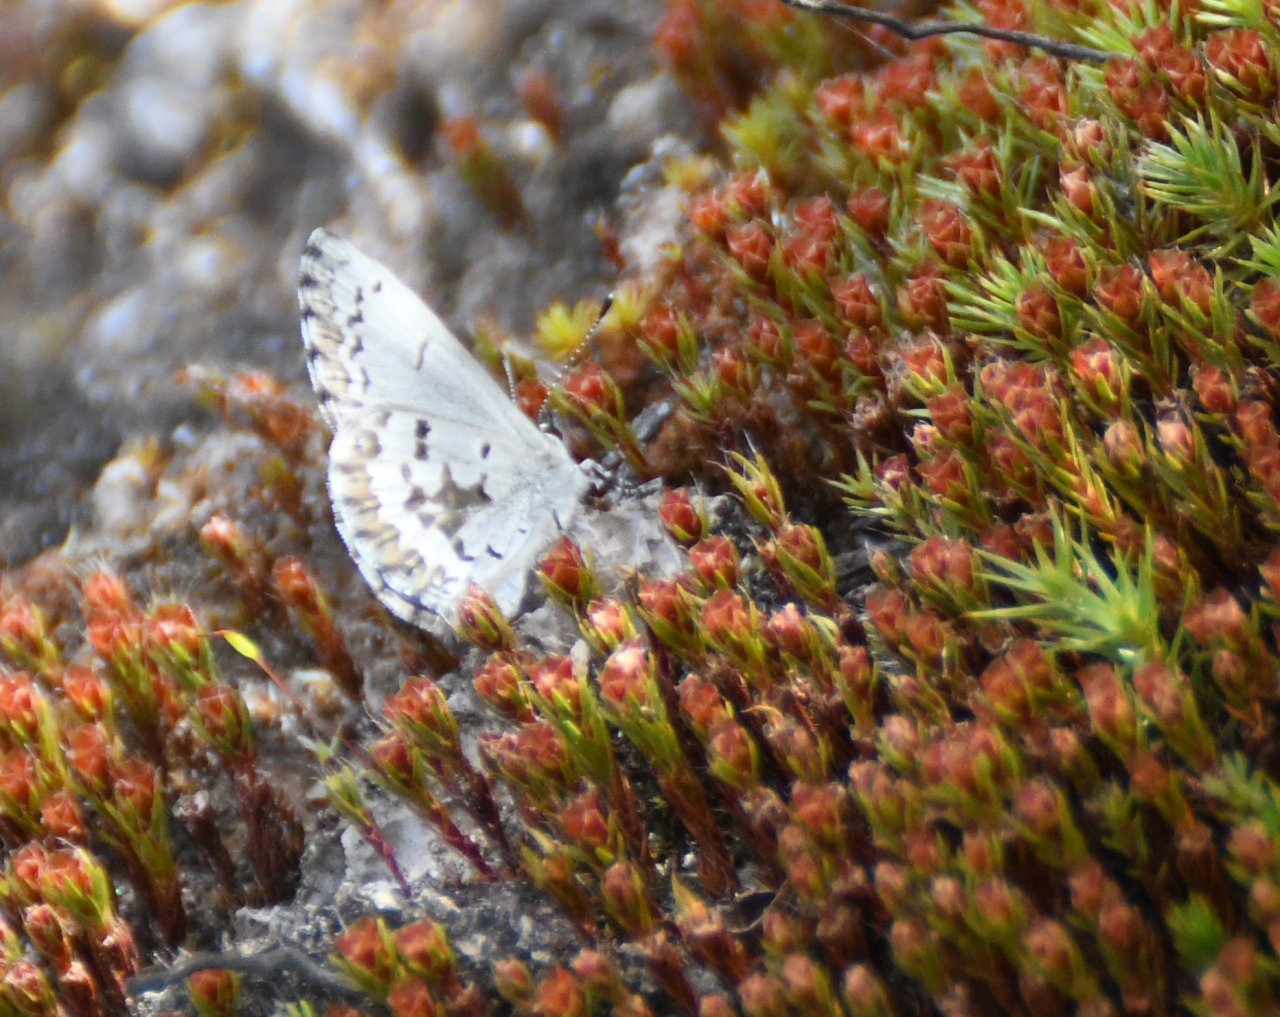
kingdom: Animalia
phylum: Arthropoda
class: Insecta
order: Lepidoptera
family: Lycaenidae
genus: Celastrina
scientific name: Celastrina lucia
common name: Northern Spring Azure
